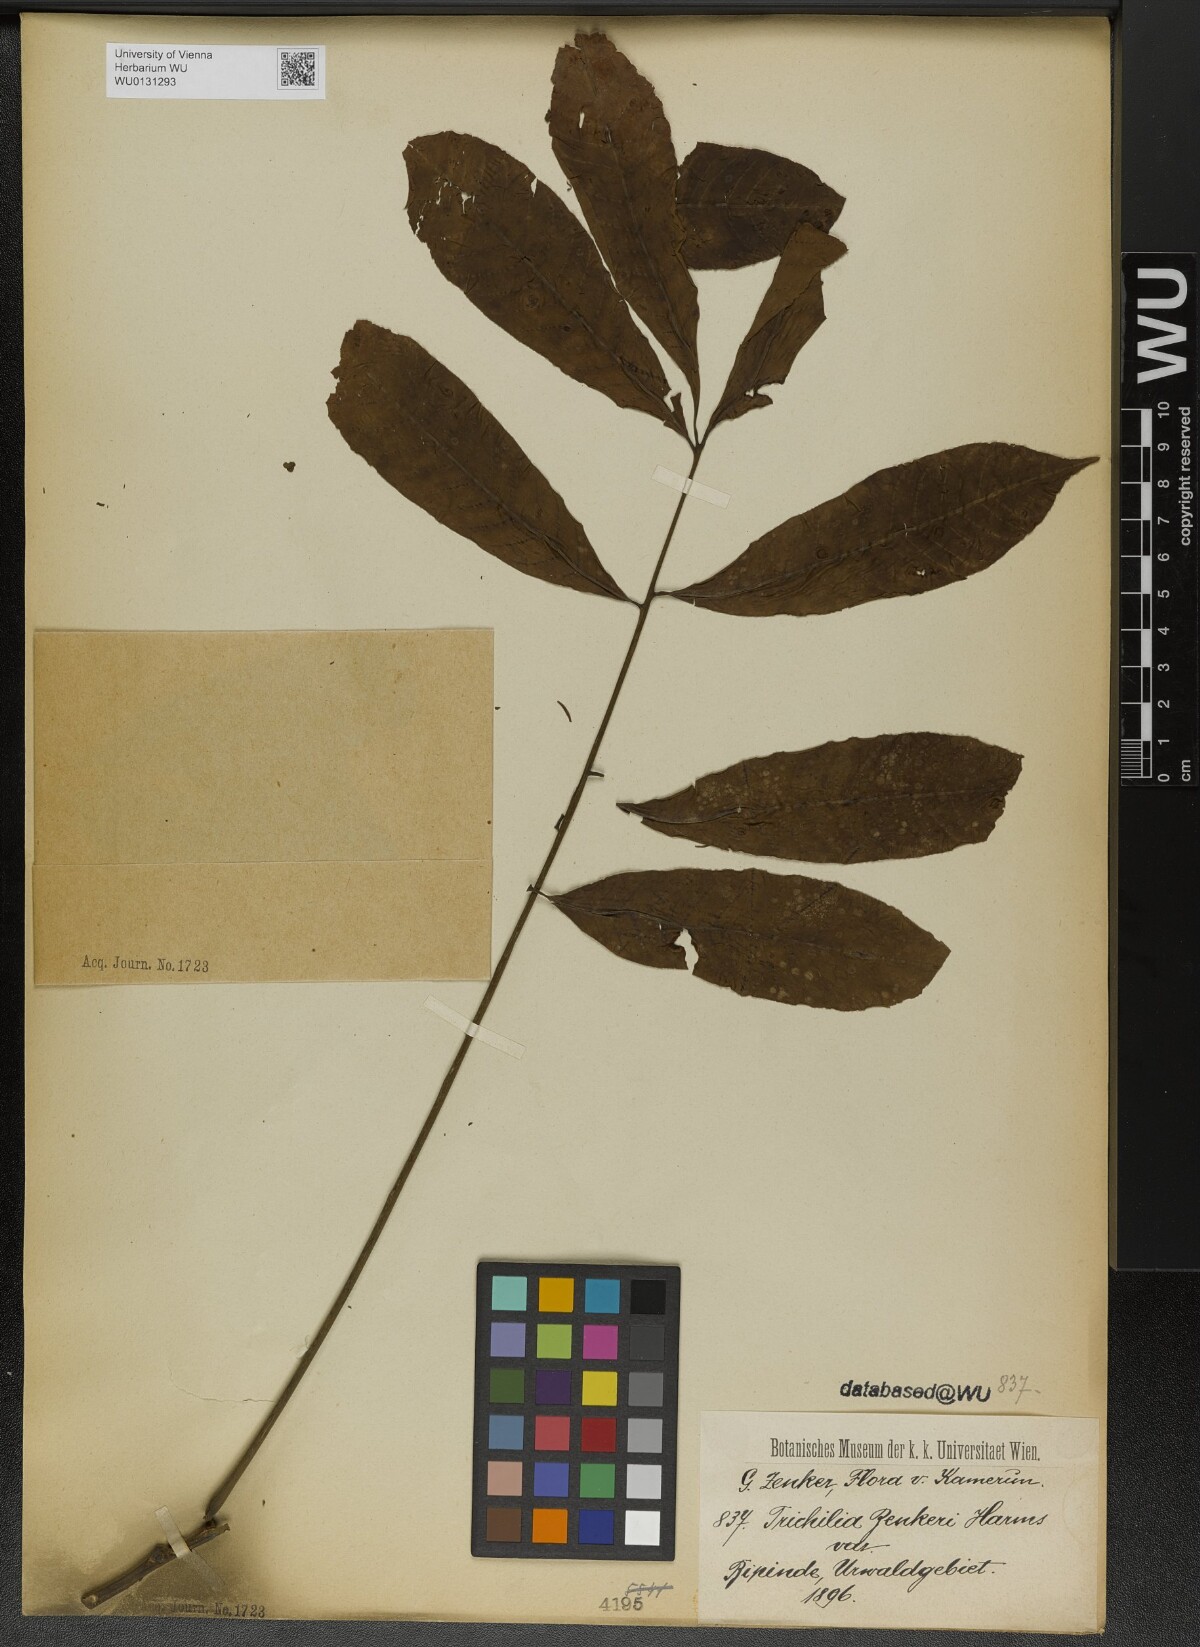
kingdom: Plantae
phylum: Tracheophyta
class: Magnoliopsida
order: Sapindales
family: Meliaceae
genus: Trichilia
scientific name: Trichilia welwitschii
